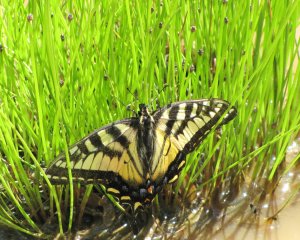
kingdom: Animalia
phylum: Arthropoda
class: Insecta
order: Lepidoptera
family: Papilionidae
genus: Pterourus
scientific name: Pterourus canadensis
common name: Canadian Tiger Swallowtail
